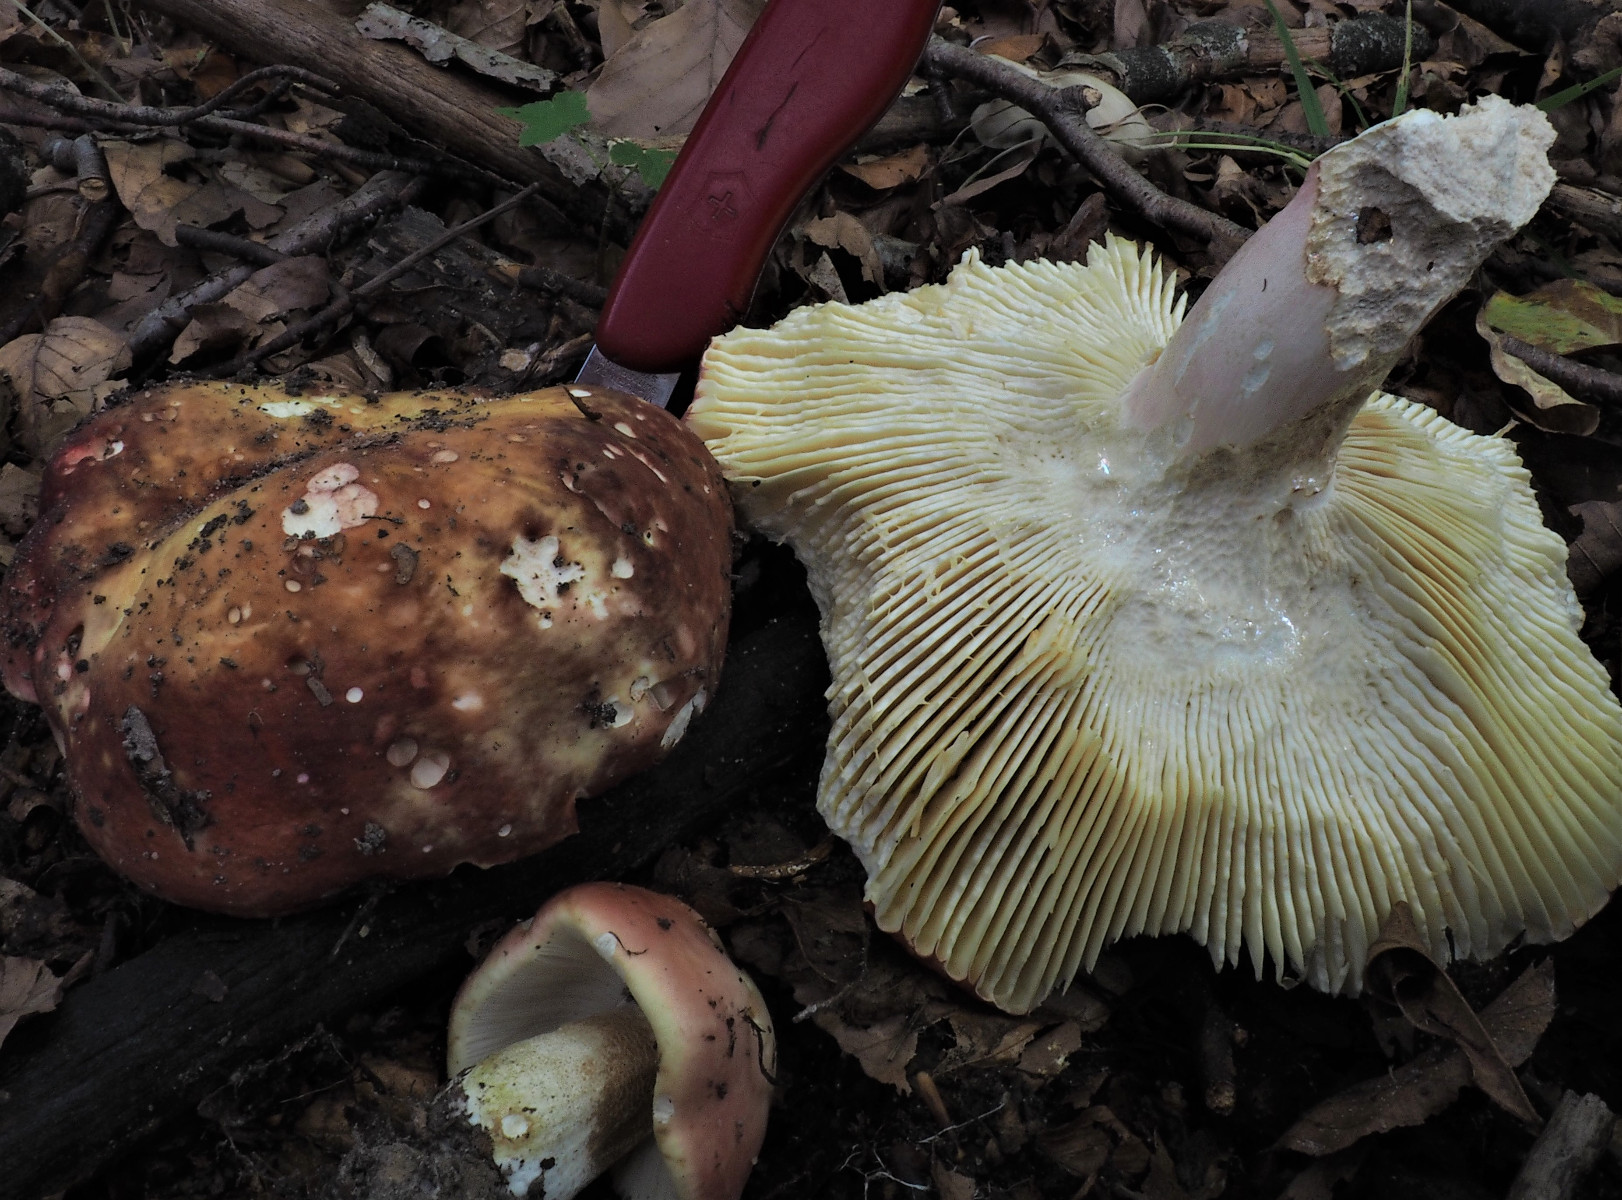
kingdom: Fungi
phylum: Basidiomycota
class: Agaricomycetes
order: Russulales
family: Russulaceae
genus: Russula
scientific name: Russula
